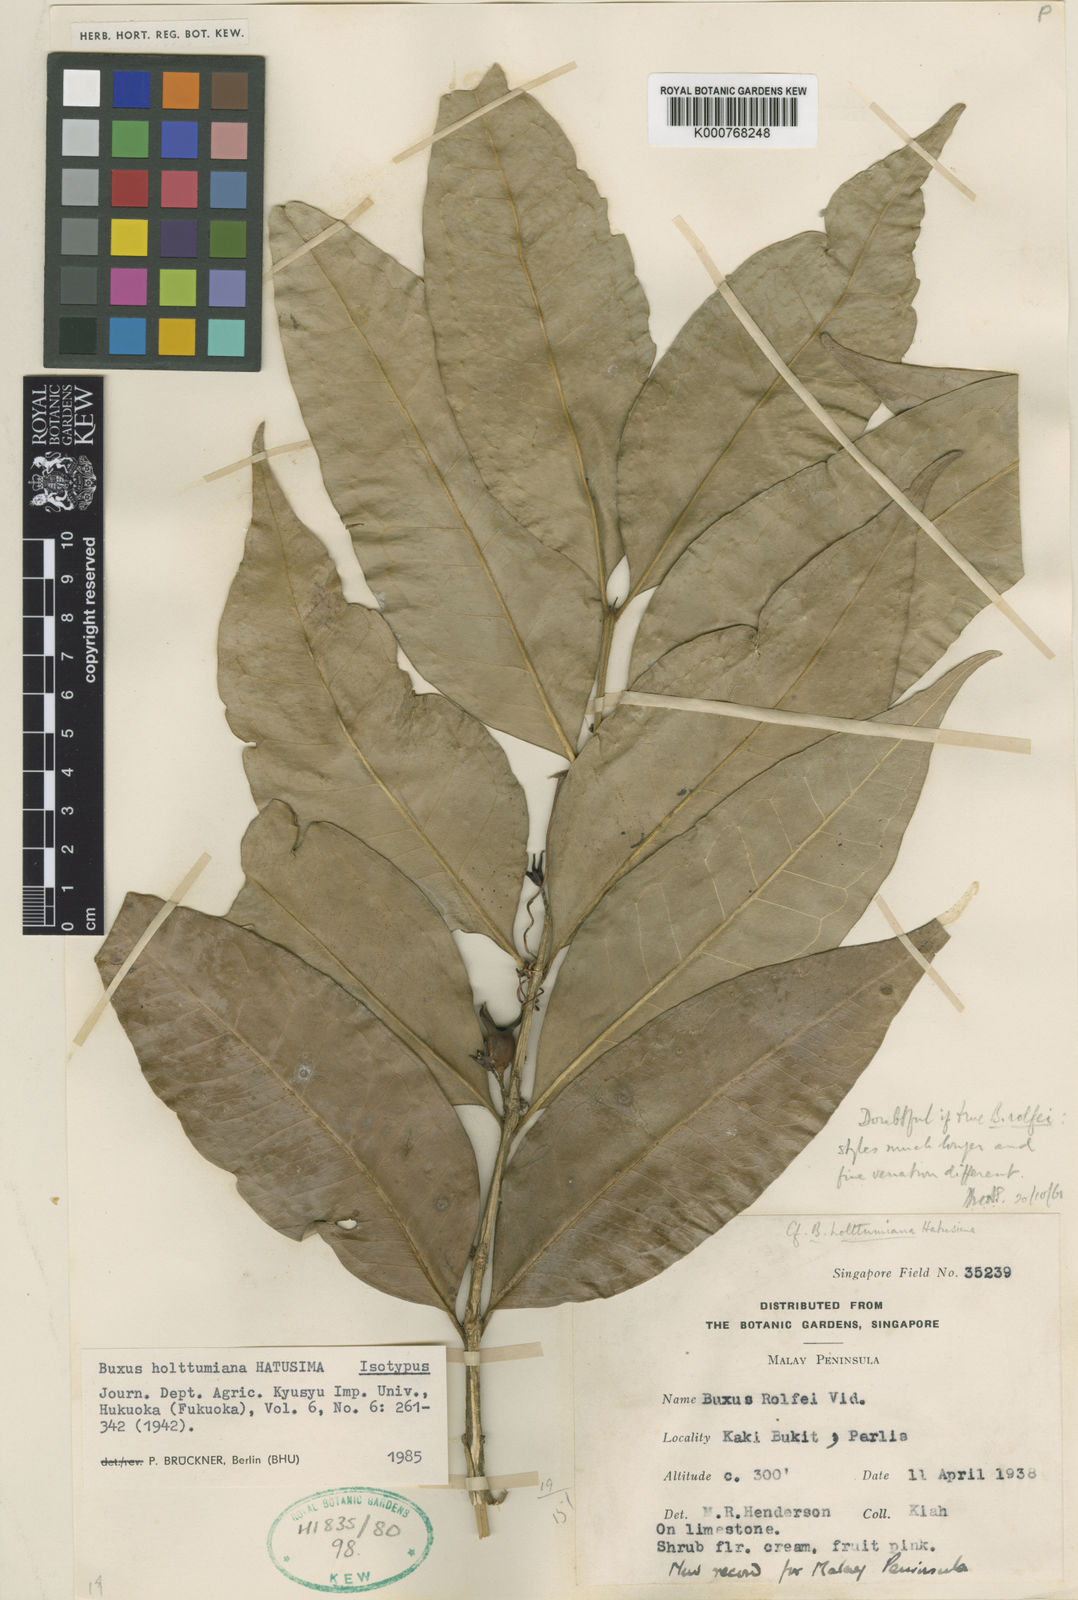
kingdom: Plantae
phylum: Tracheophyta
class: Magnoliopsida
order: Buxales
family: Buxaceae
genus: Buxus
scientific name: Buxus rolfei
